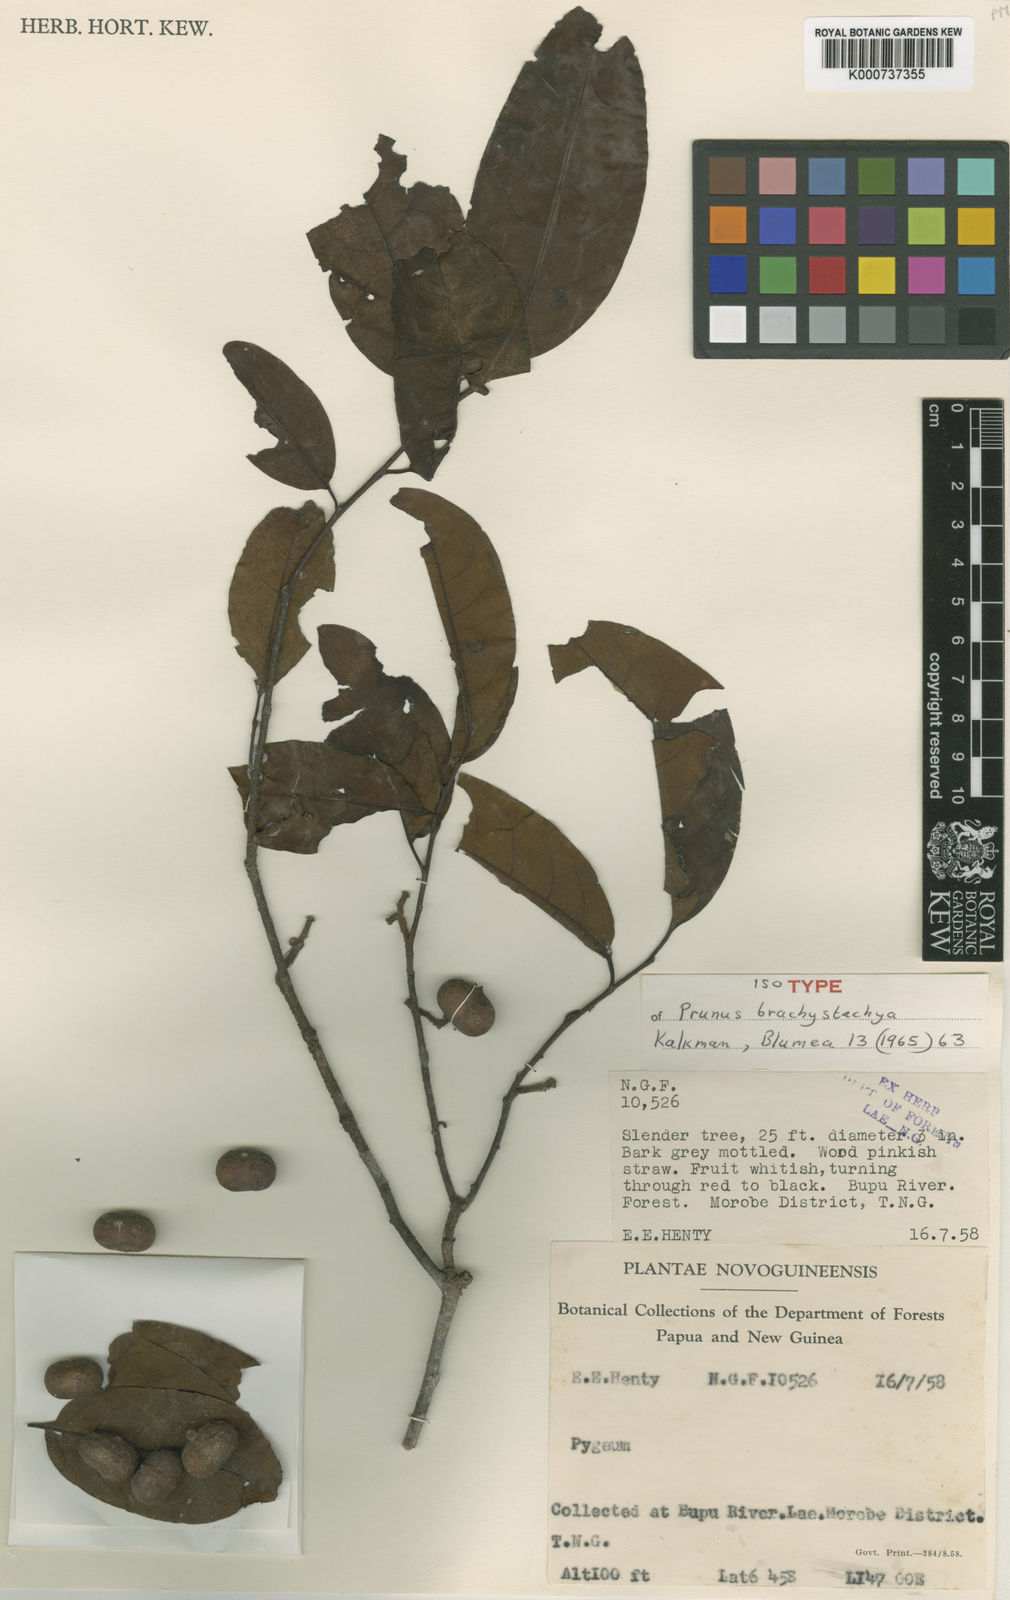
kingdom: Plantae
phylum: Tracheophyta
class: Magnoliopsida
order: Rosales
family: Rosaceae
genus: Prunus
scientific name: Prunus brachystachya
